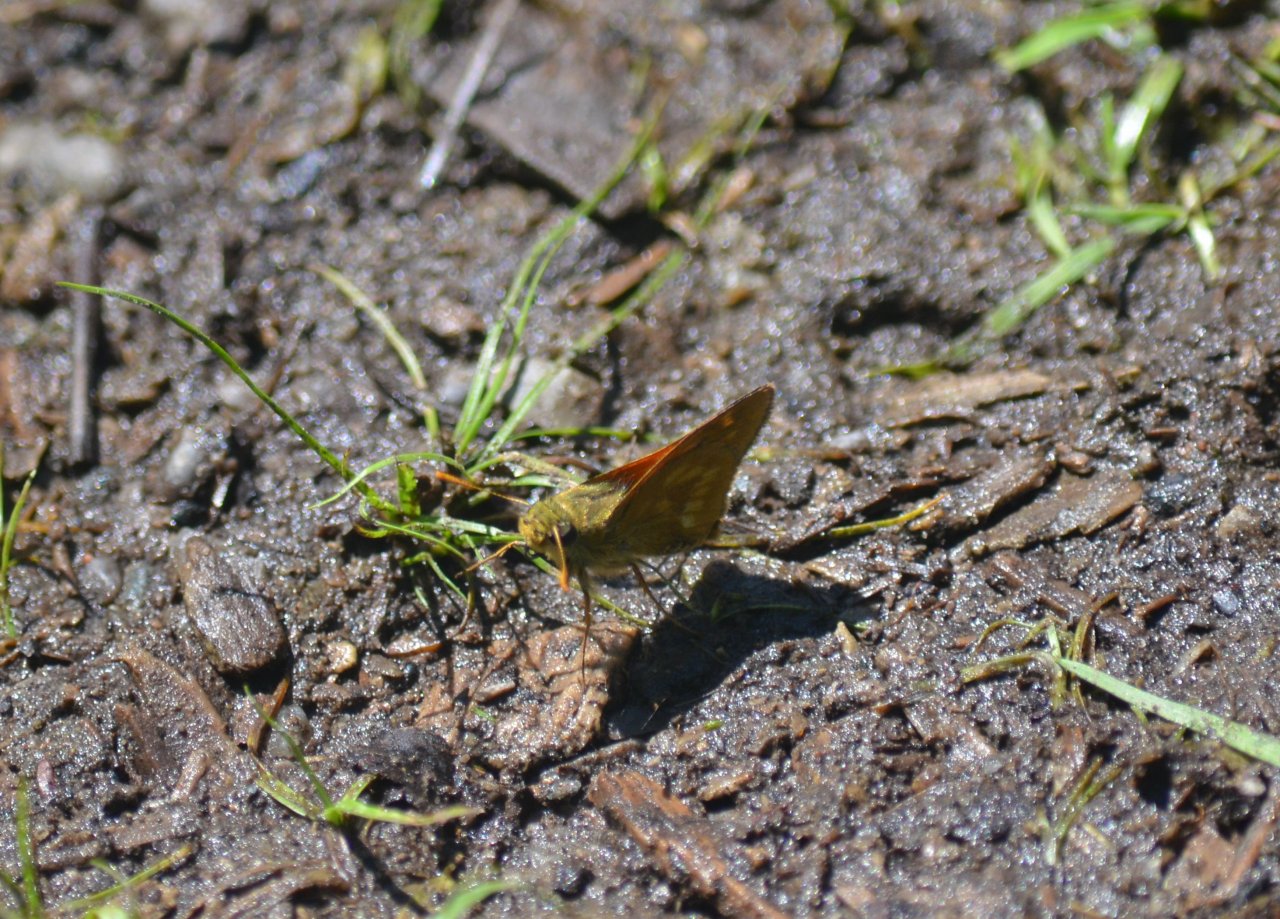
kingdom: Animalia
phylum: Arthropoda
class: Insecta
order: Lepidoptera
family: Hesperiidae
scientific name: Hesperiidae
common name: Skippers
